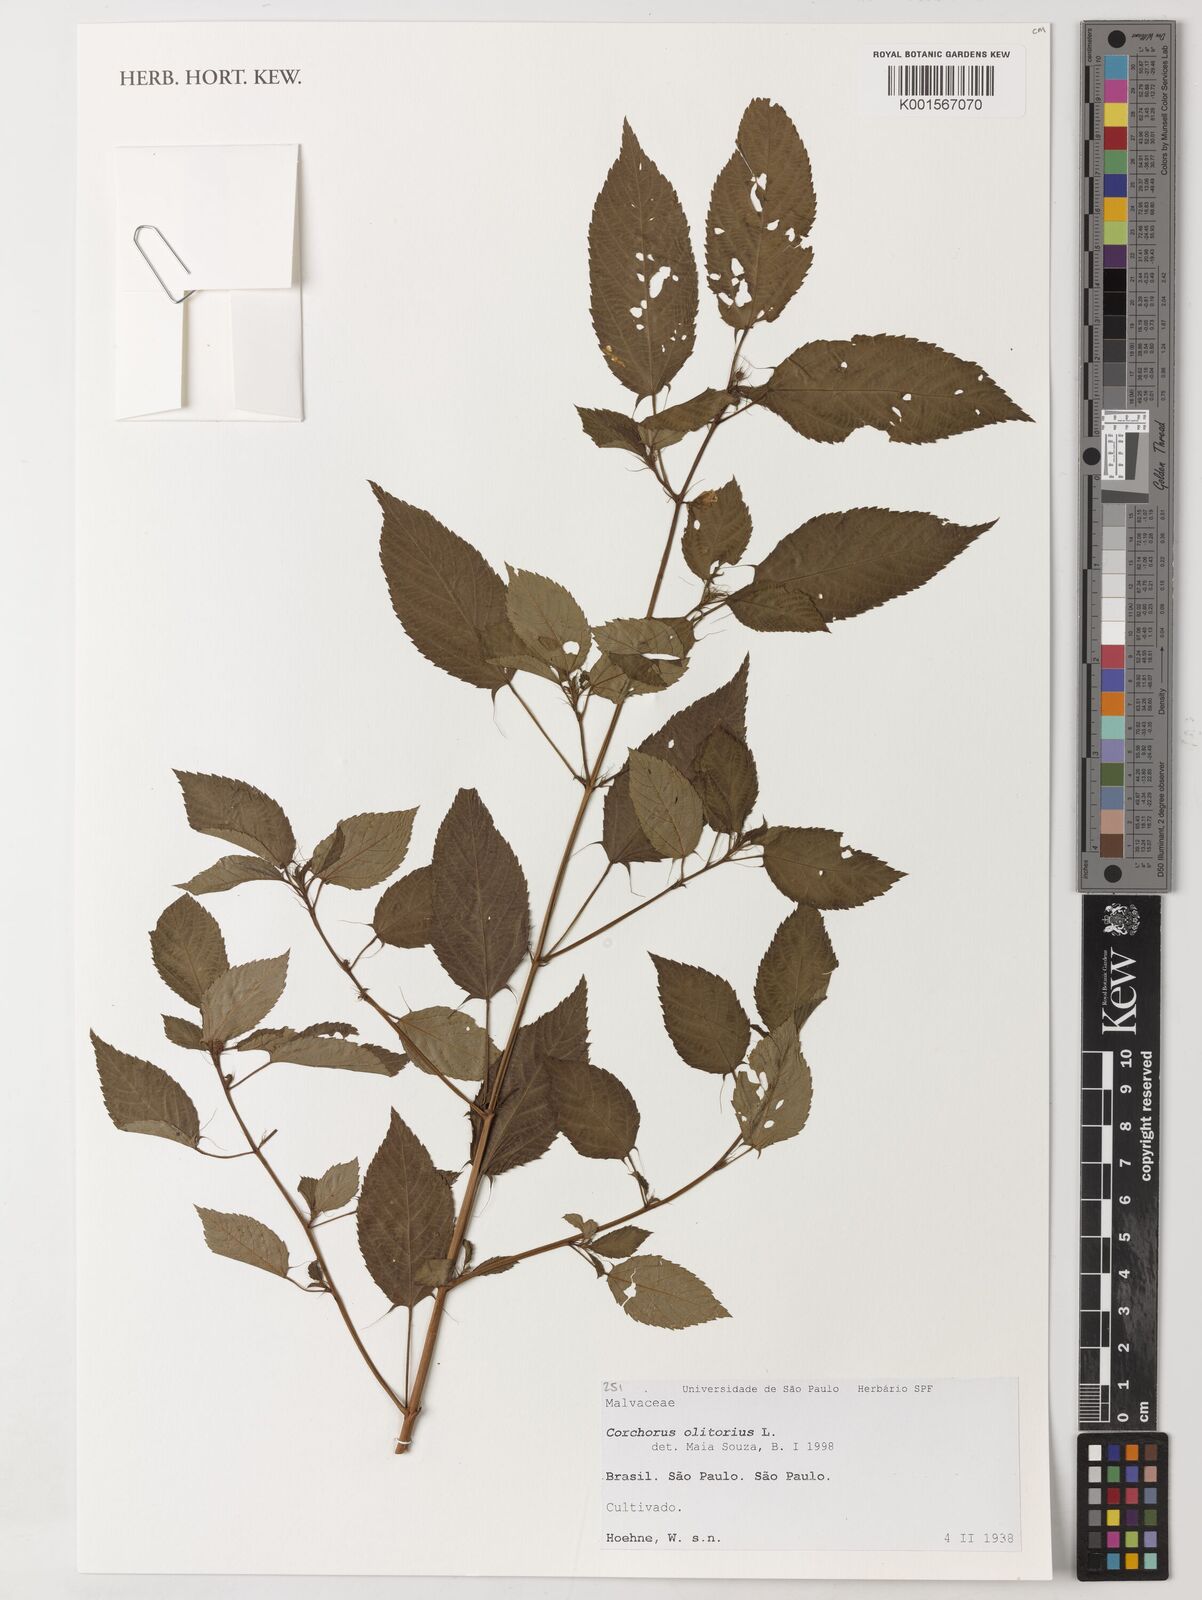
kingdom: Plantae
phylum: Tracheophyta
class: Magnoliopsida
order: Malvales
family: Malvaceae
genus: Corchorus
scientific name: Corchorus olitorius
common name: Tossa jute
